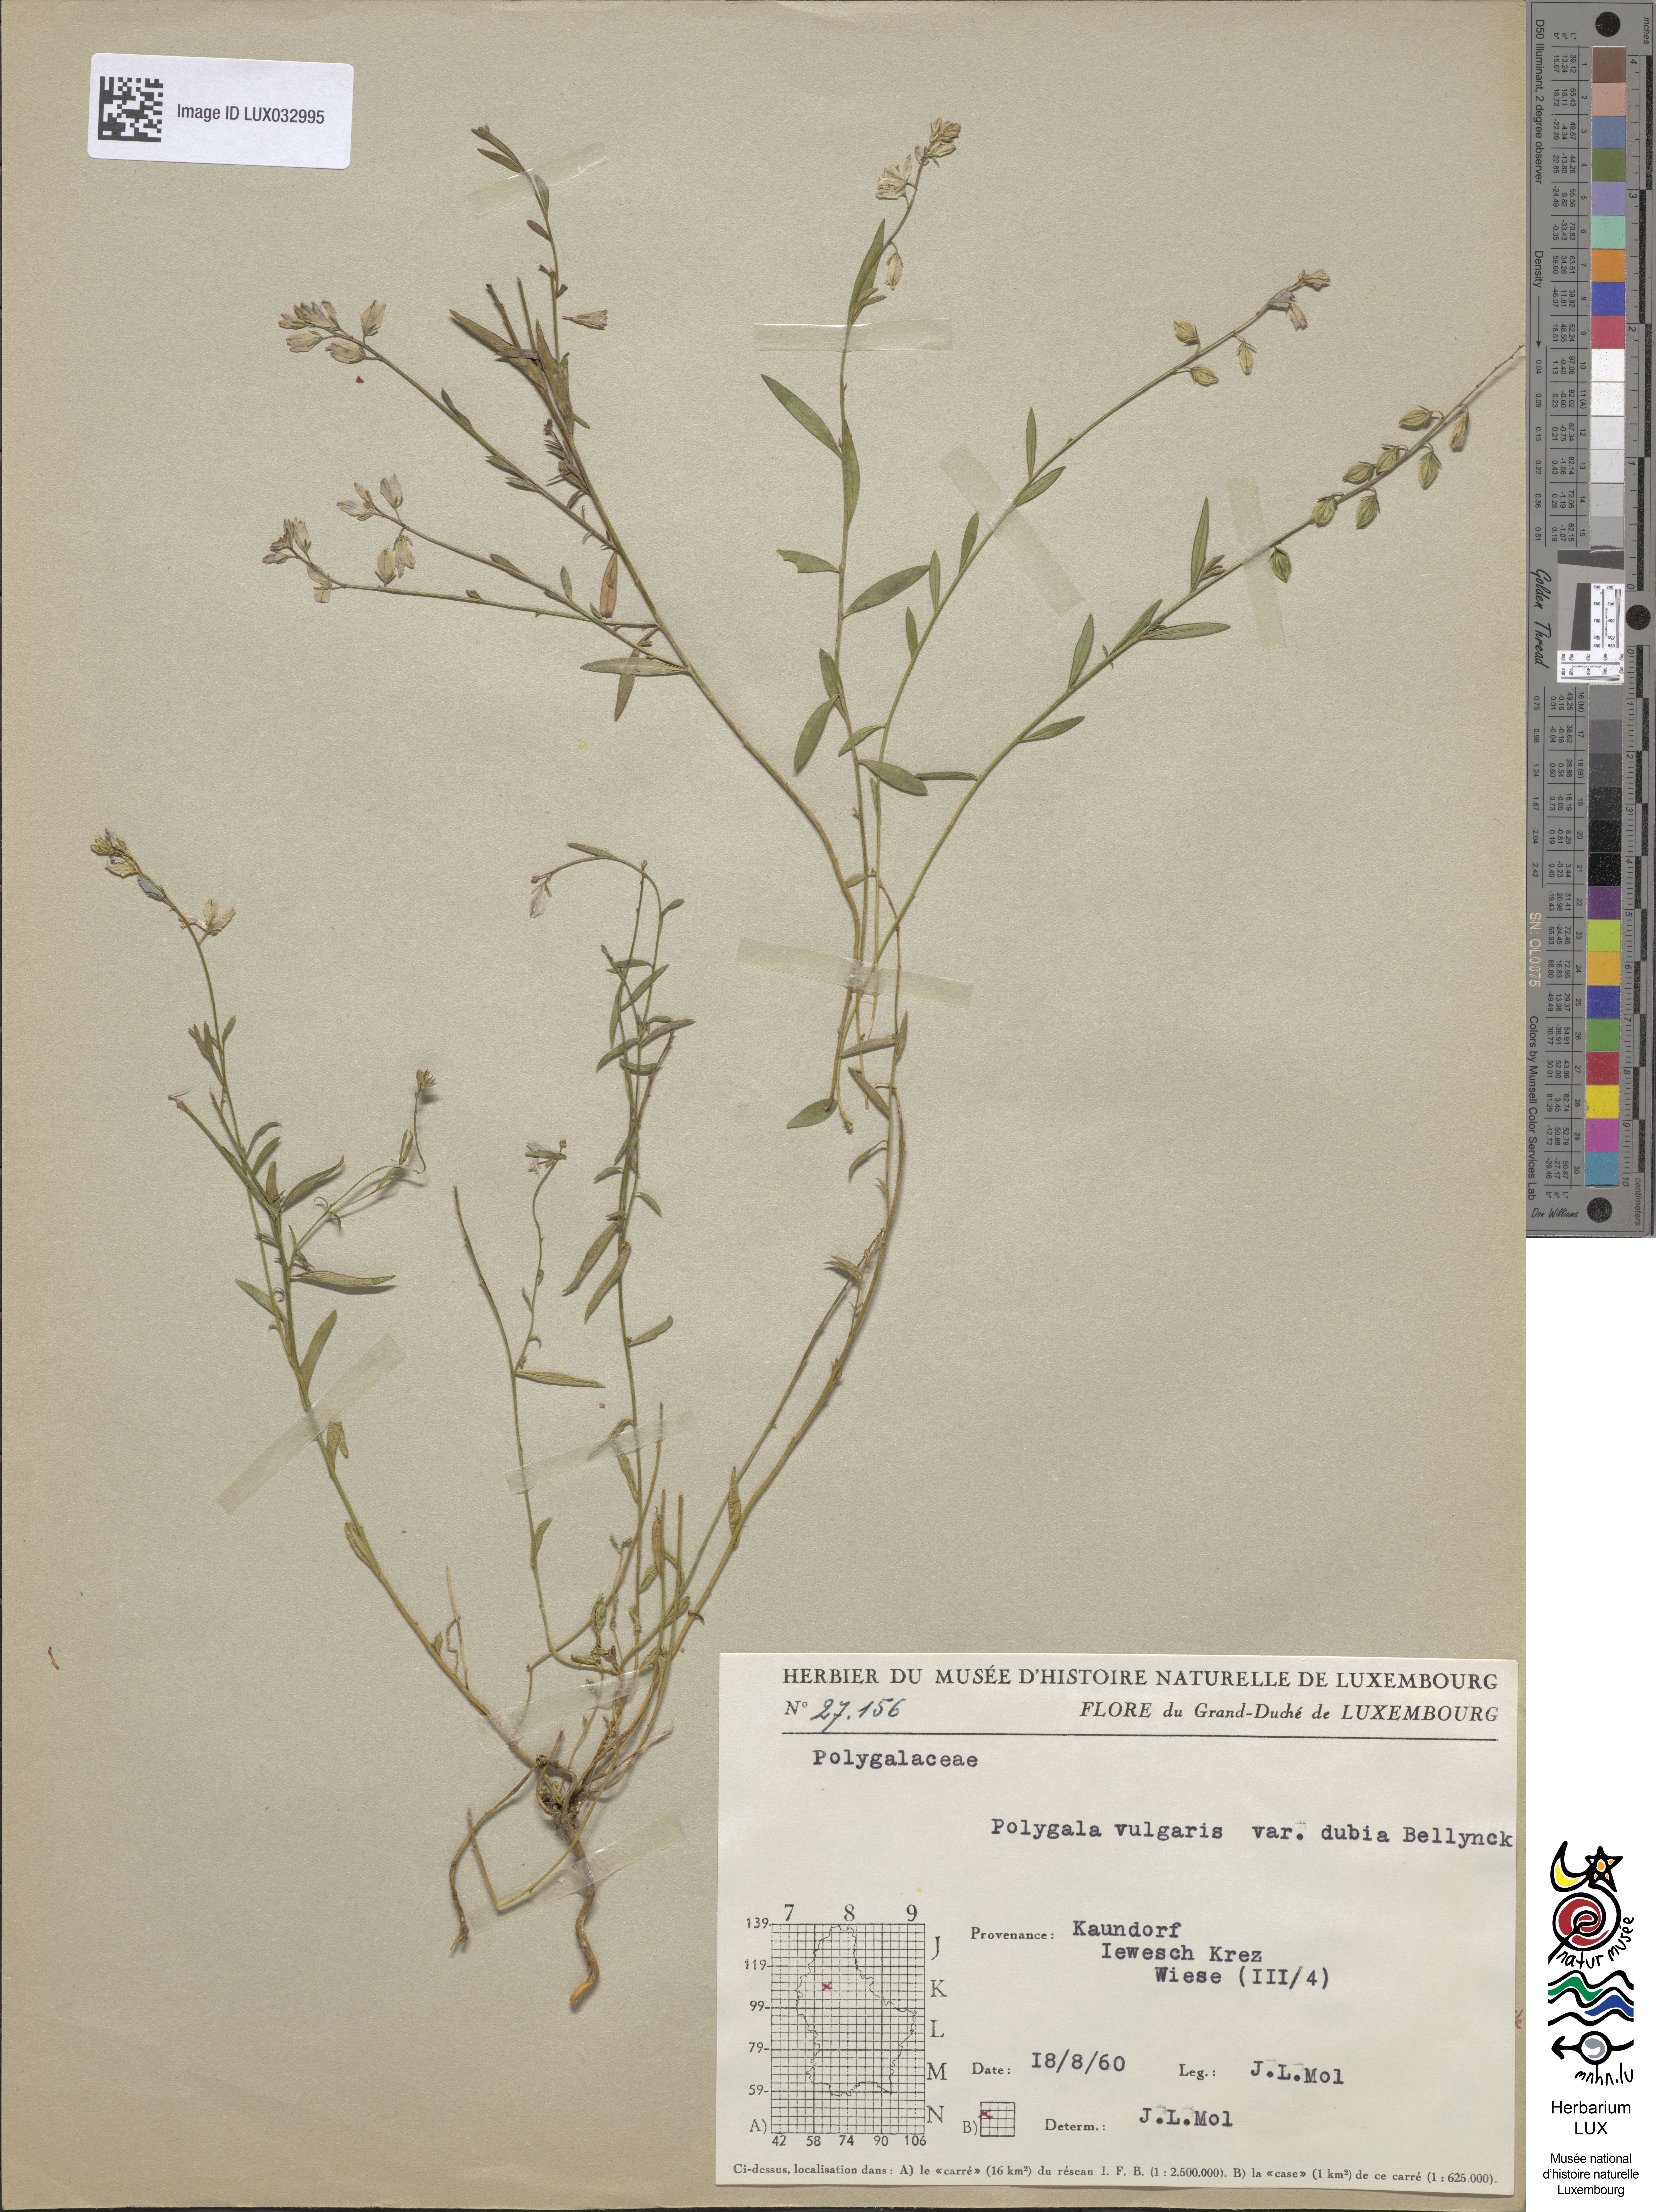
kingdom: Plantae
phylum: Tracheophyta
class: Magnoliopsida
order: Fabales
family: Polygalaceae
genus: Polygala
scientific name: Polygala vulgaris
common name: Common milkwort
